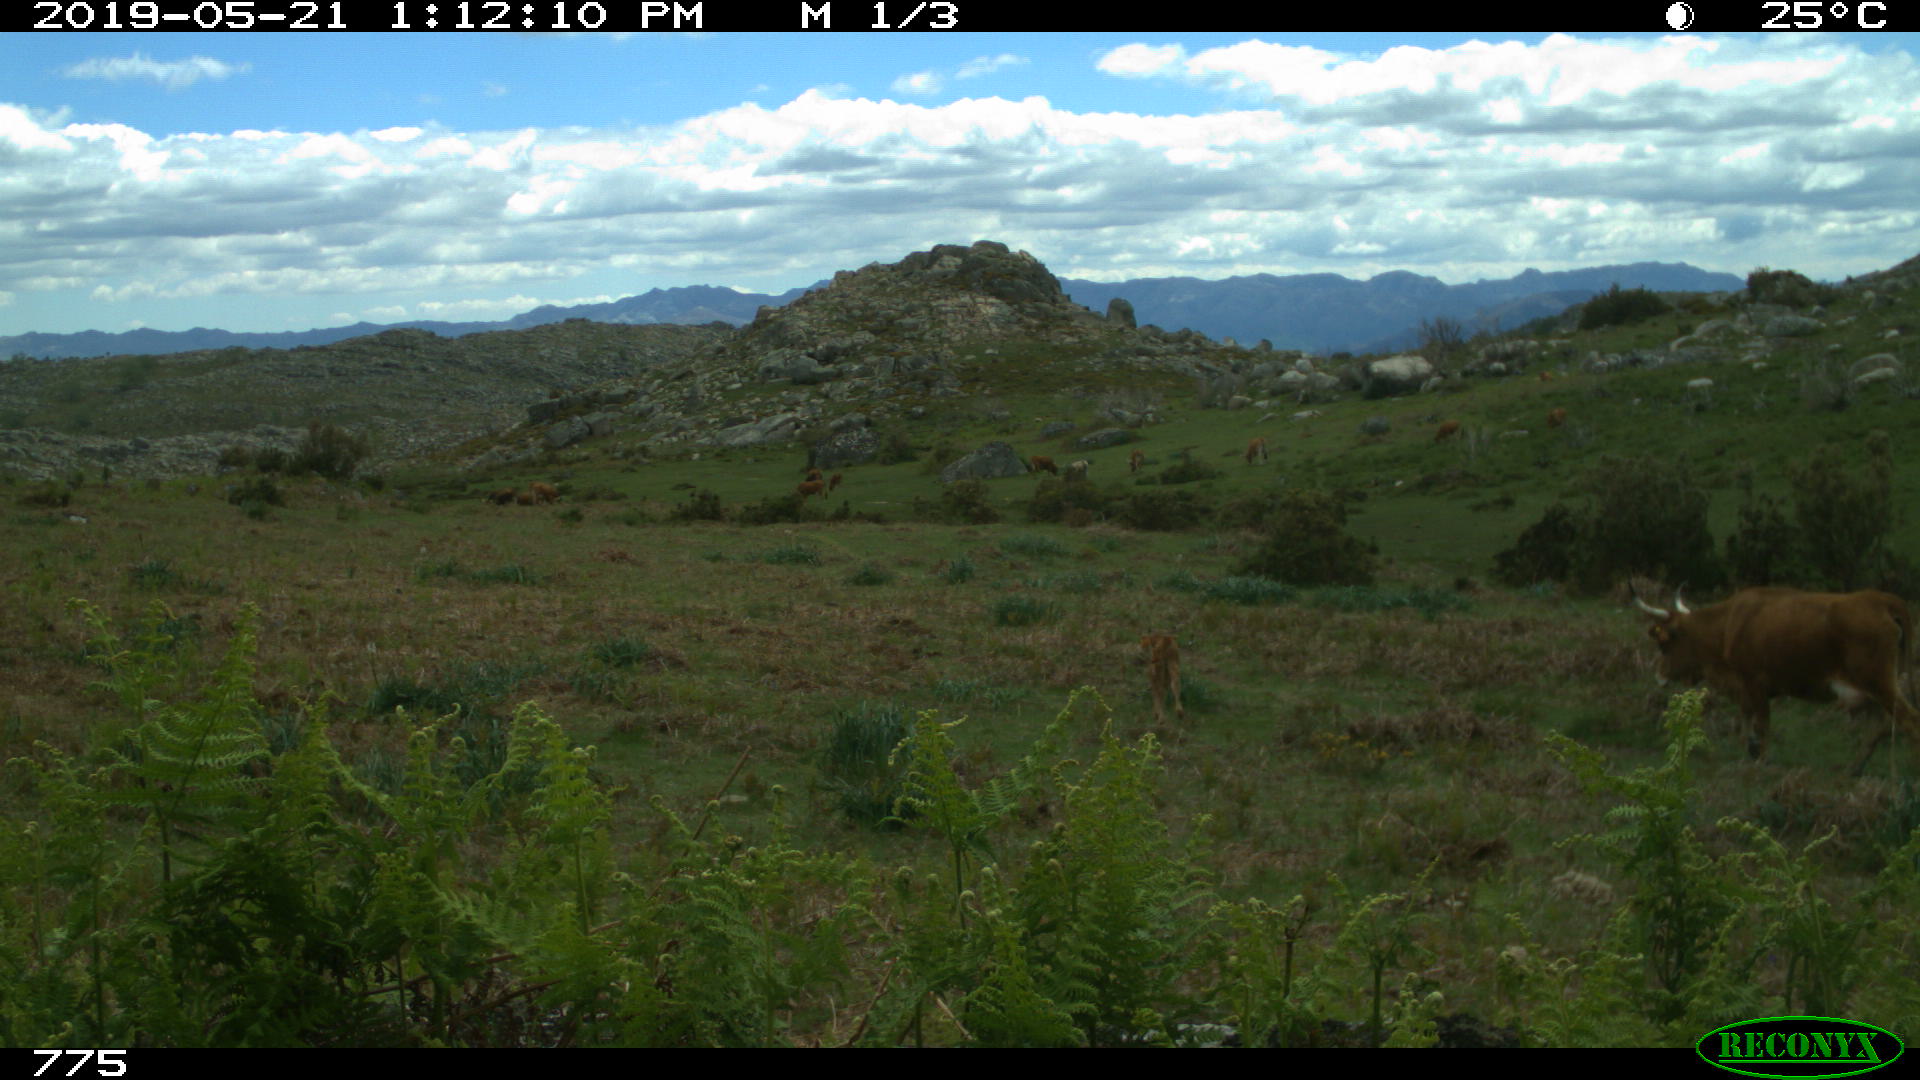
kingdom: Animalia
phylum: Chordata
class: Mammalia
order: Artiodactyla
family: Bovidae
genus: Bos
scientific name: Bos taurus
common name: Domesticated cattle
